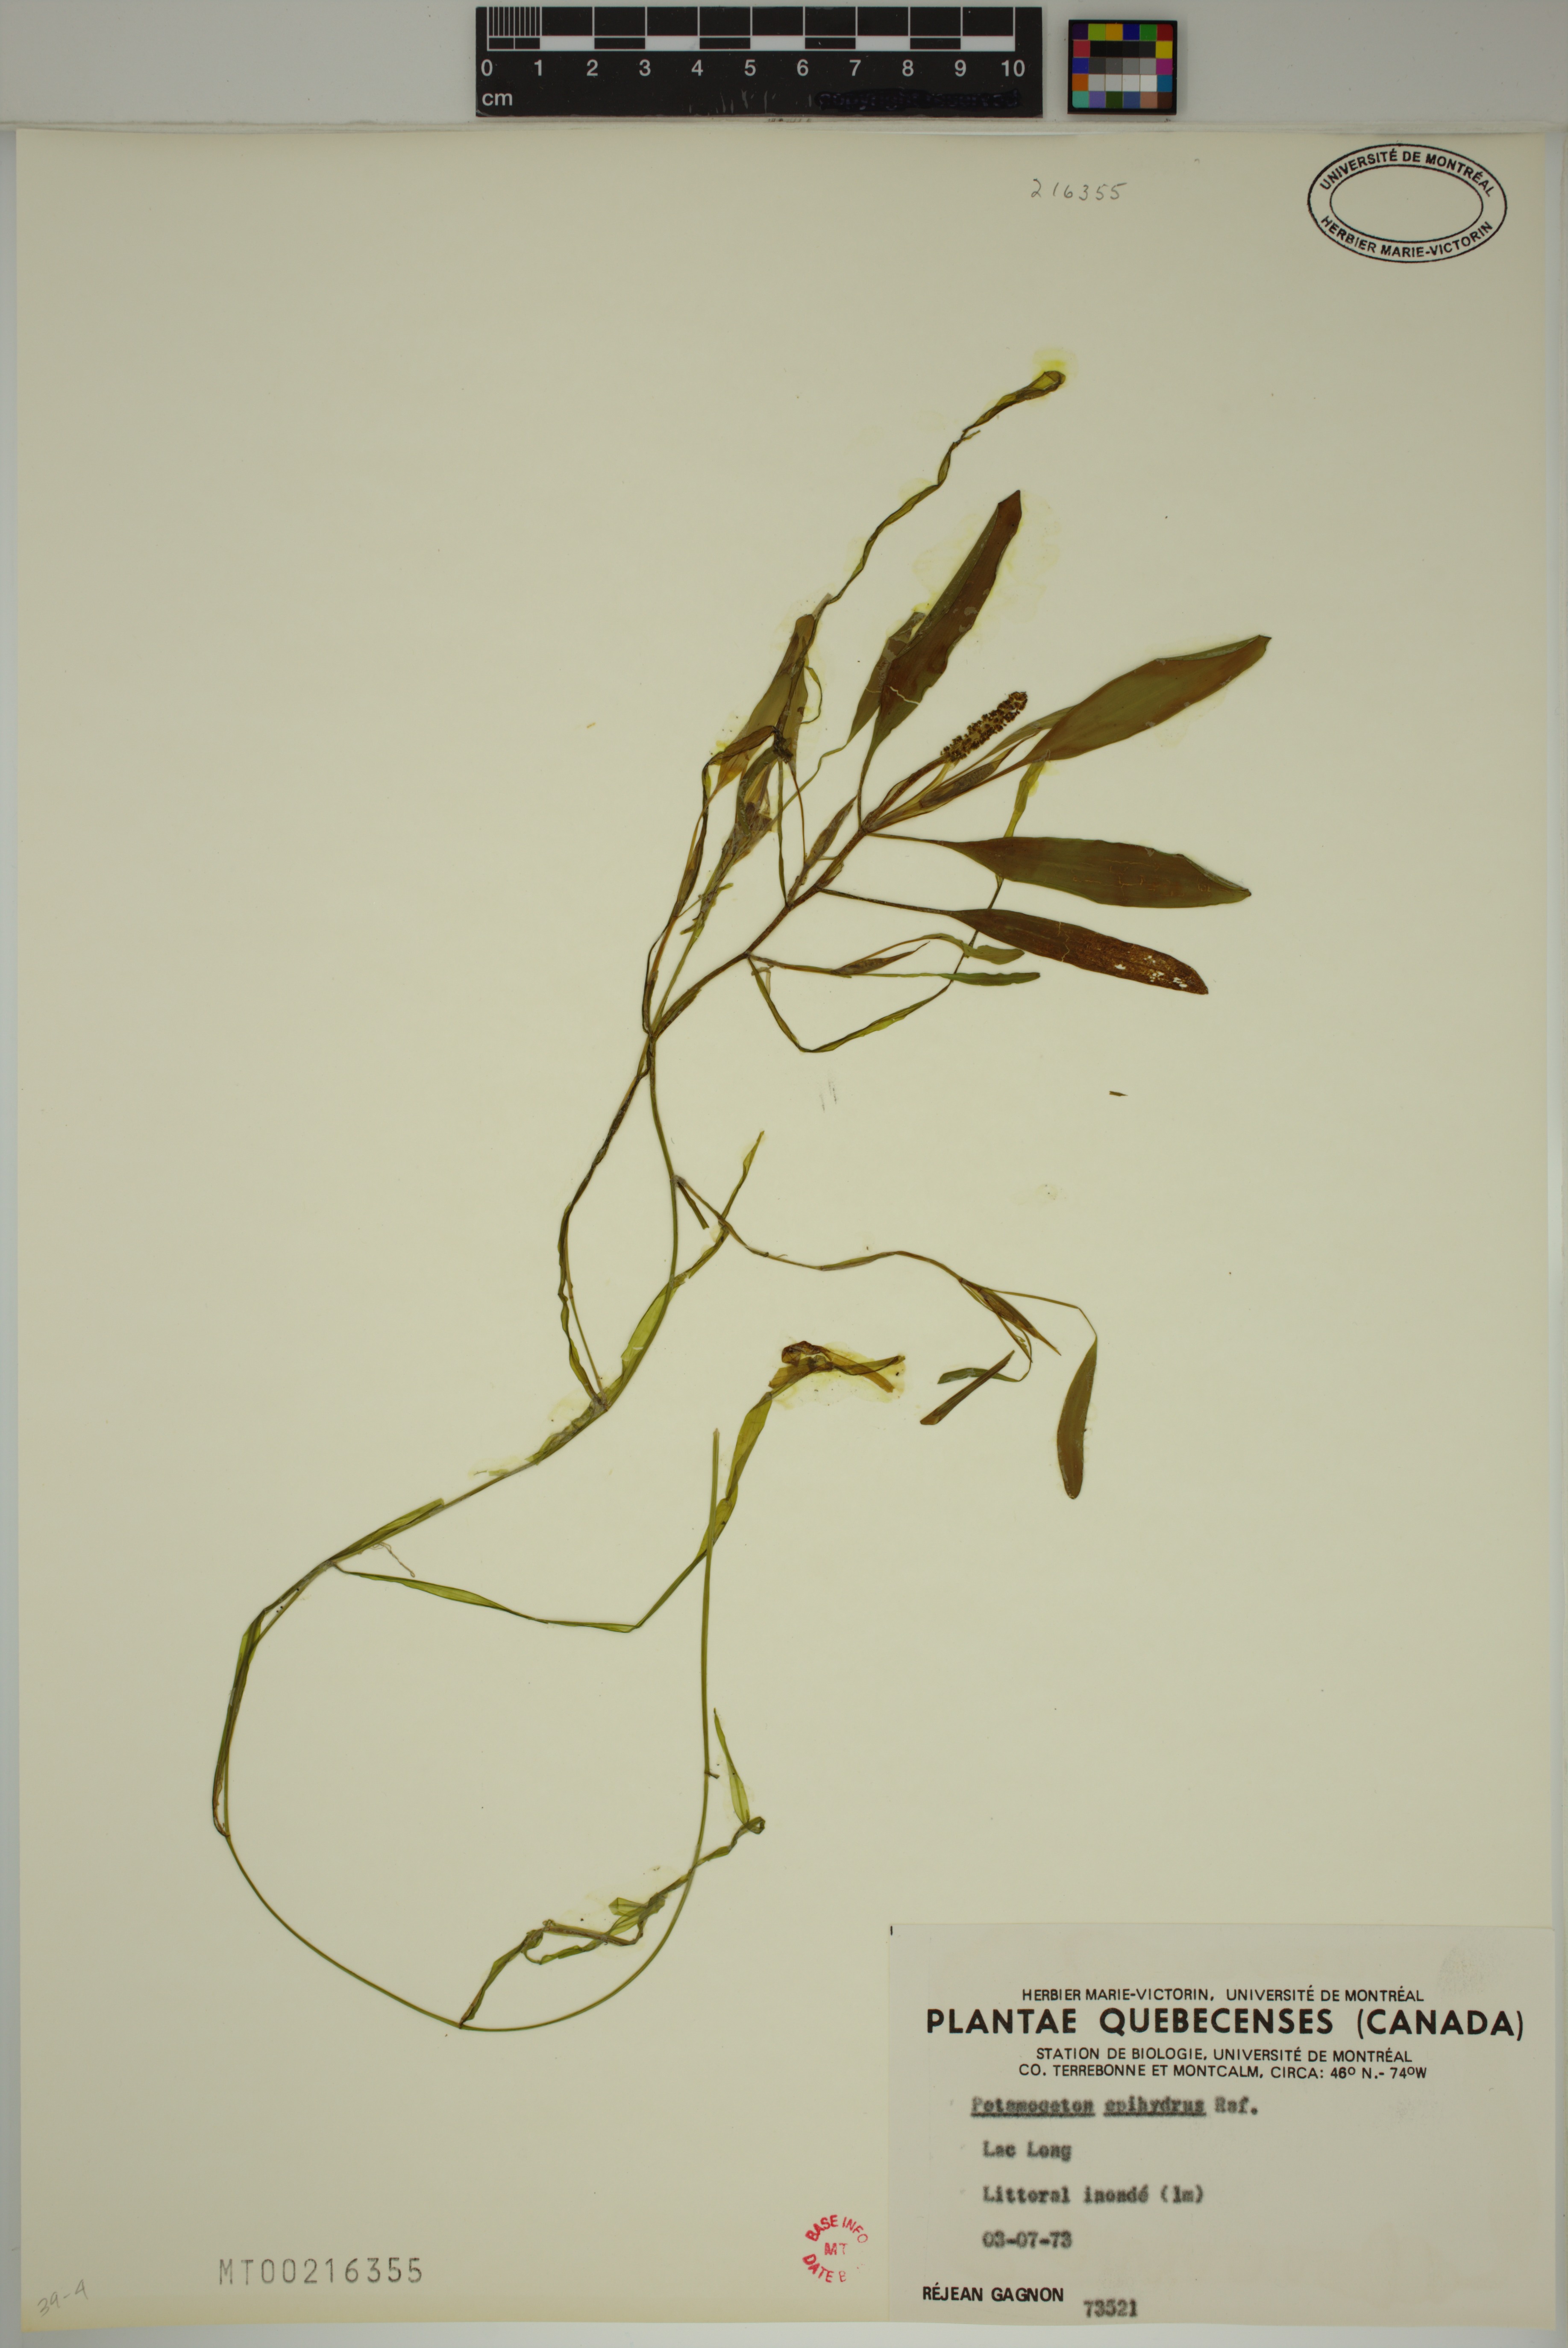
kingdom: Plantae
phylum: Tracheophyta
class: Liliopsida
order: Alismatales
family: Potamogetonaceae
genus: Potamogeton
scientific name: Potamogeton epihydrus
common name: American pondweed
